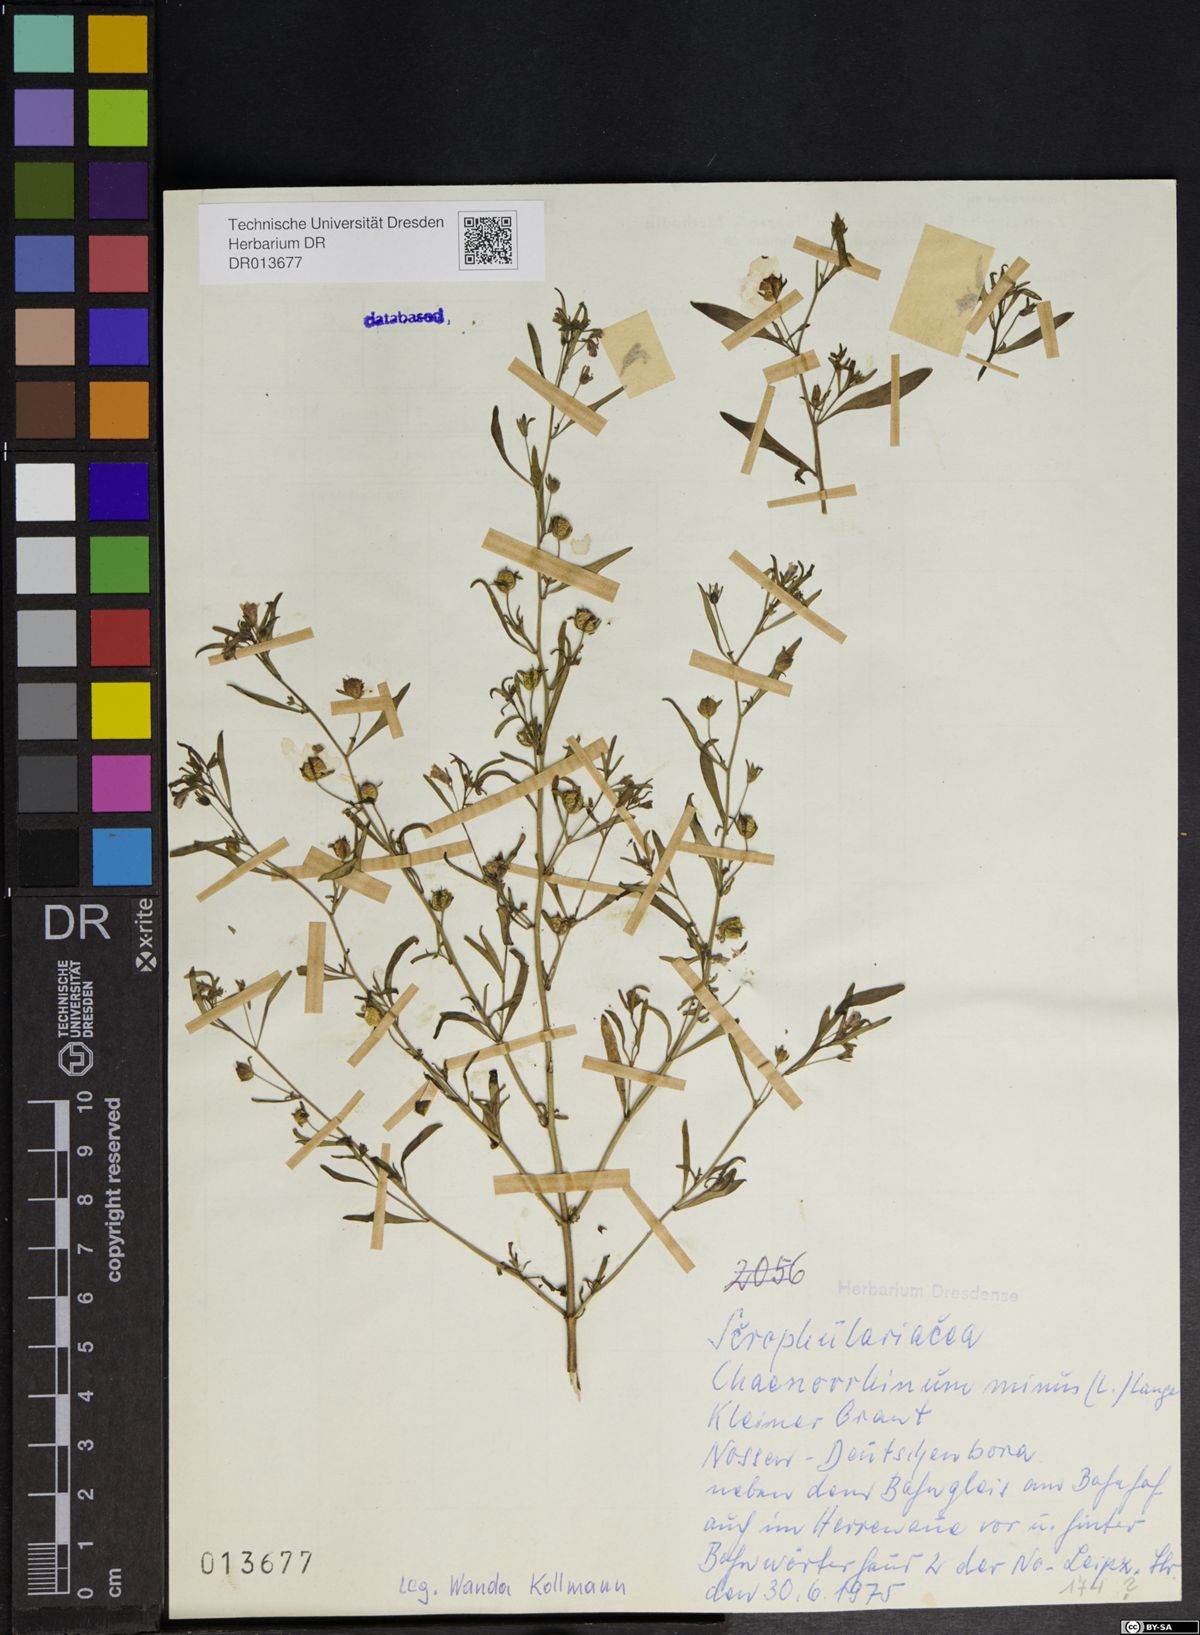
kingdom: Plantae
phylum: Tracheophyta
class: Magnoliopsida
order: Lamiales
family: Plantaginaceae
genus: Chaenorhinum
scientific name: Chaenorhinum minus
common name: Dwarf snapdragon
